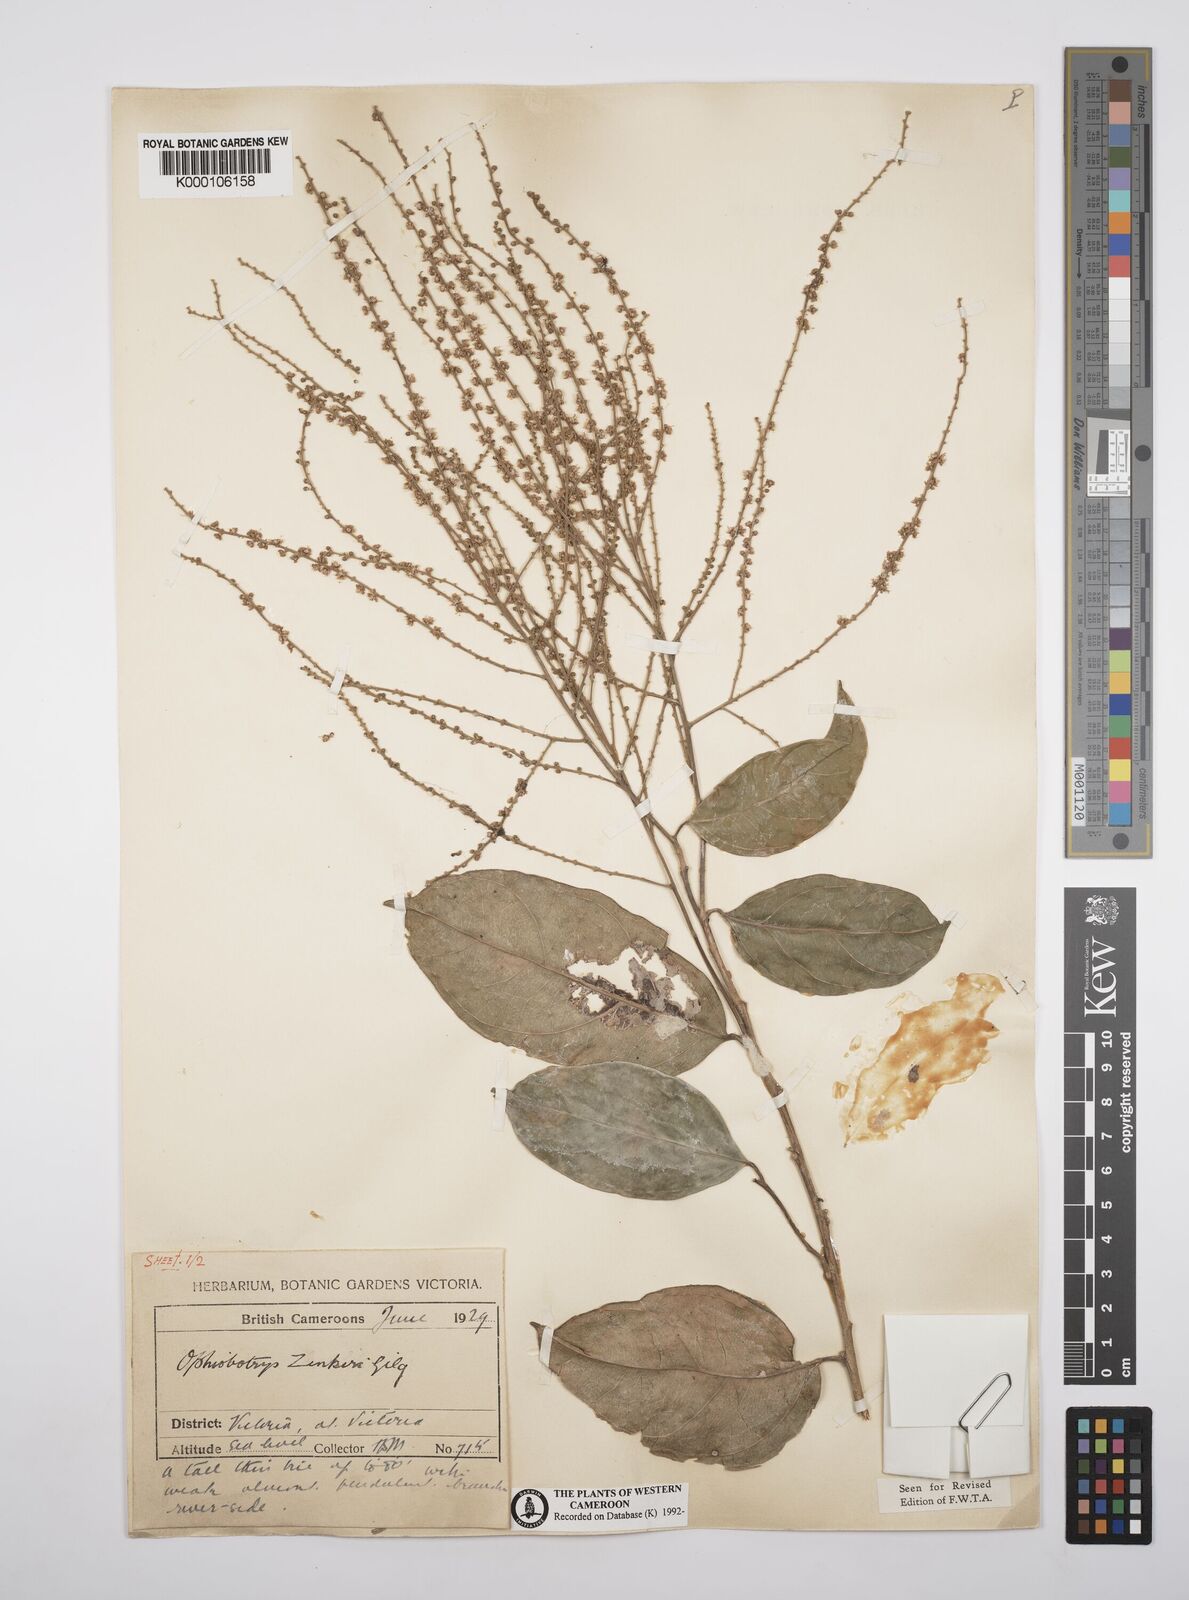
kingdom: Plantae
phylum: Tracheophyta
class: Magnoliopsida
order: Malpighiales
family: Salicaceae
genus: Ophiobotrys
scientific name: Ophiobotrys zenkeri
